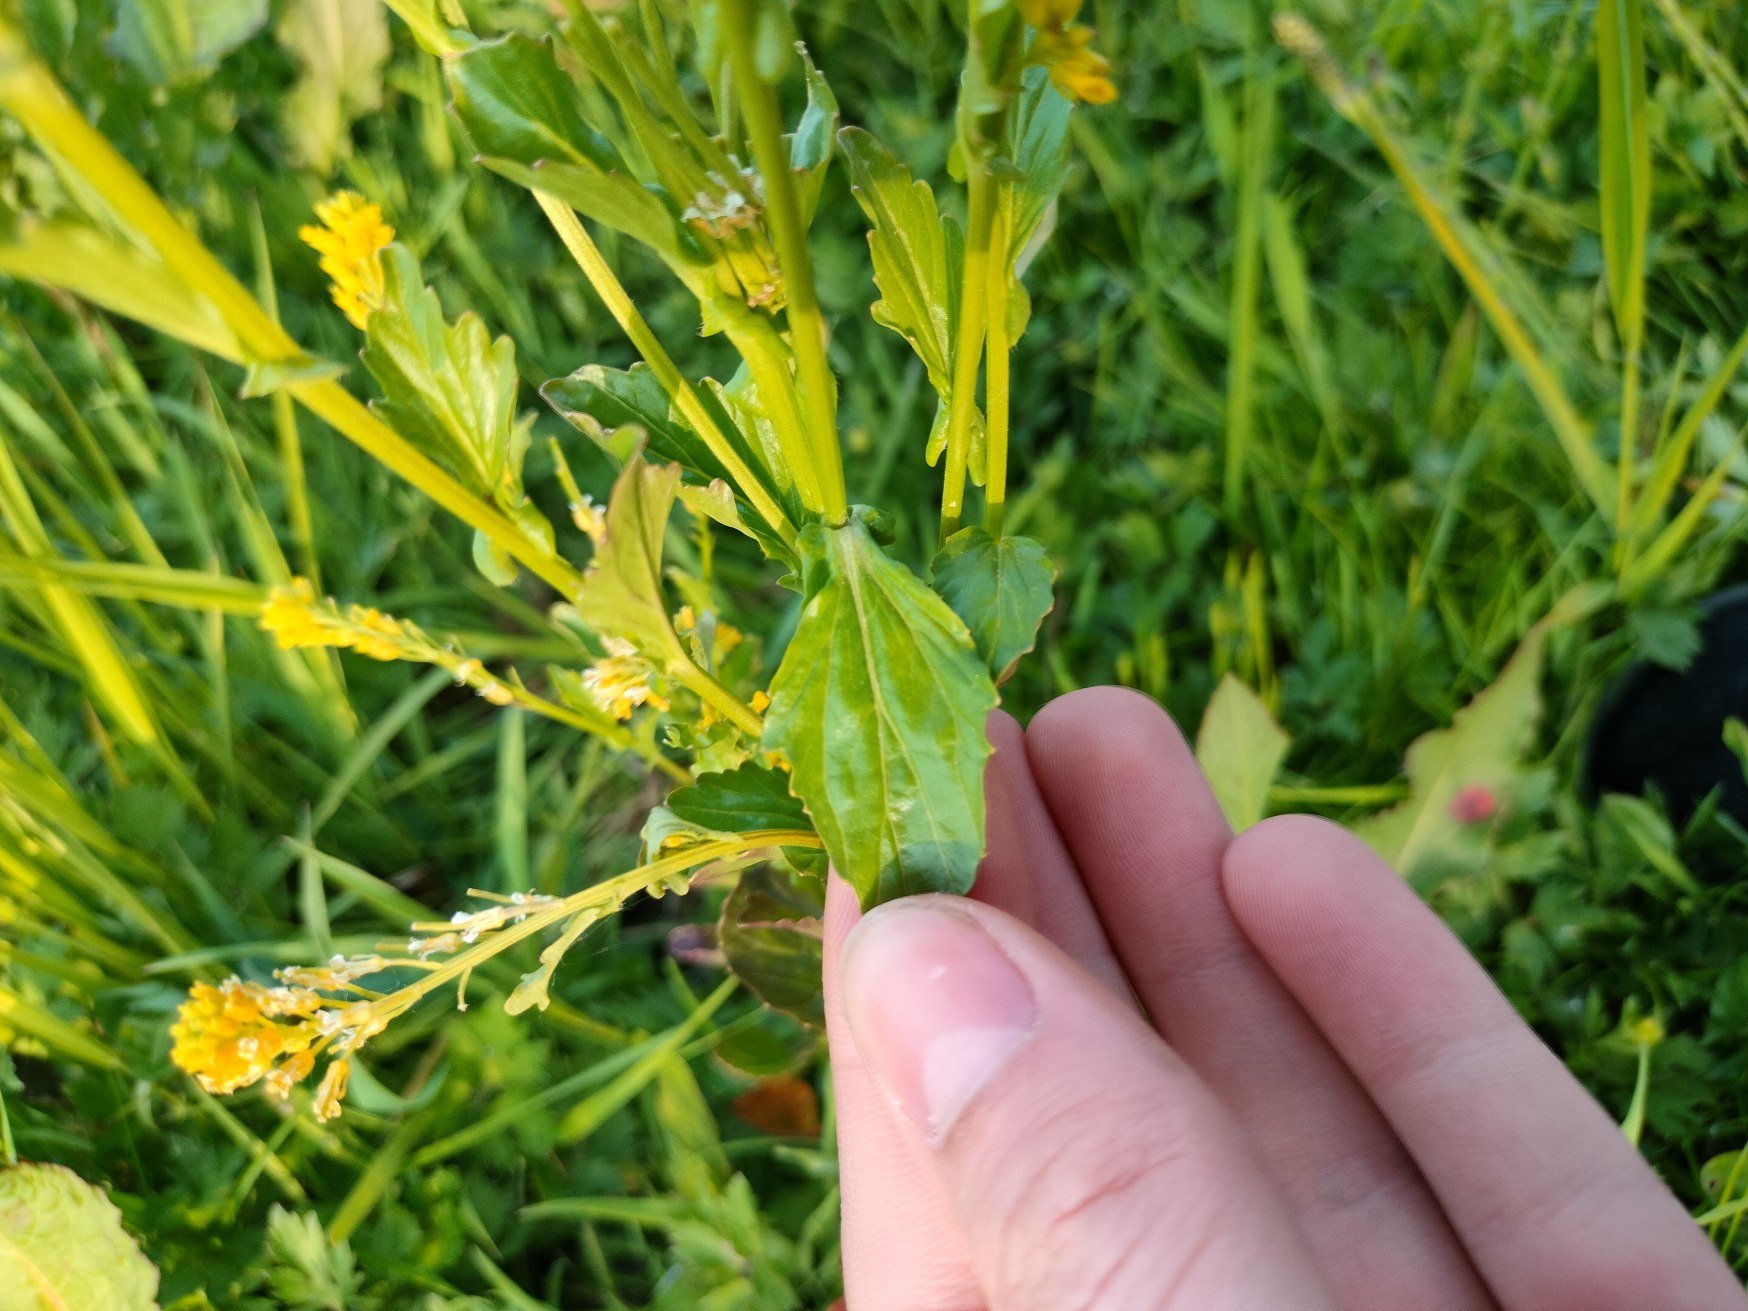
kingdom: Plantae
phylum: Tracheophyta
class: Magnoliopsida
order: Brassicales
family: Brassicaceae
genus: Barbarea
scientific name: Barbarea stricta
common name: Rank vinterkarse
